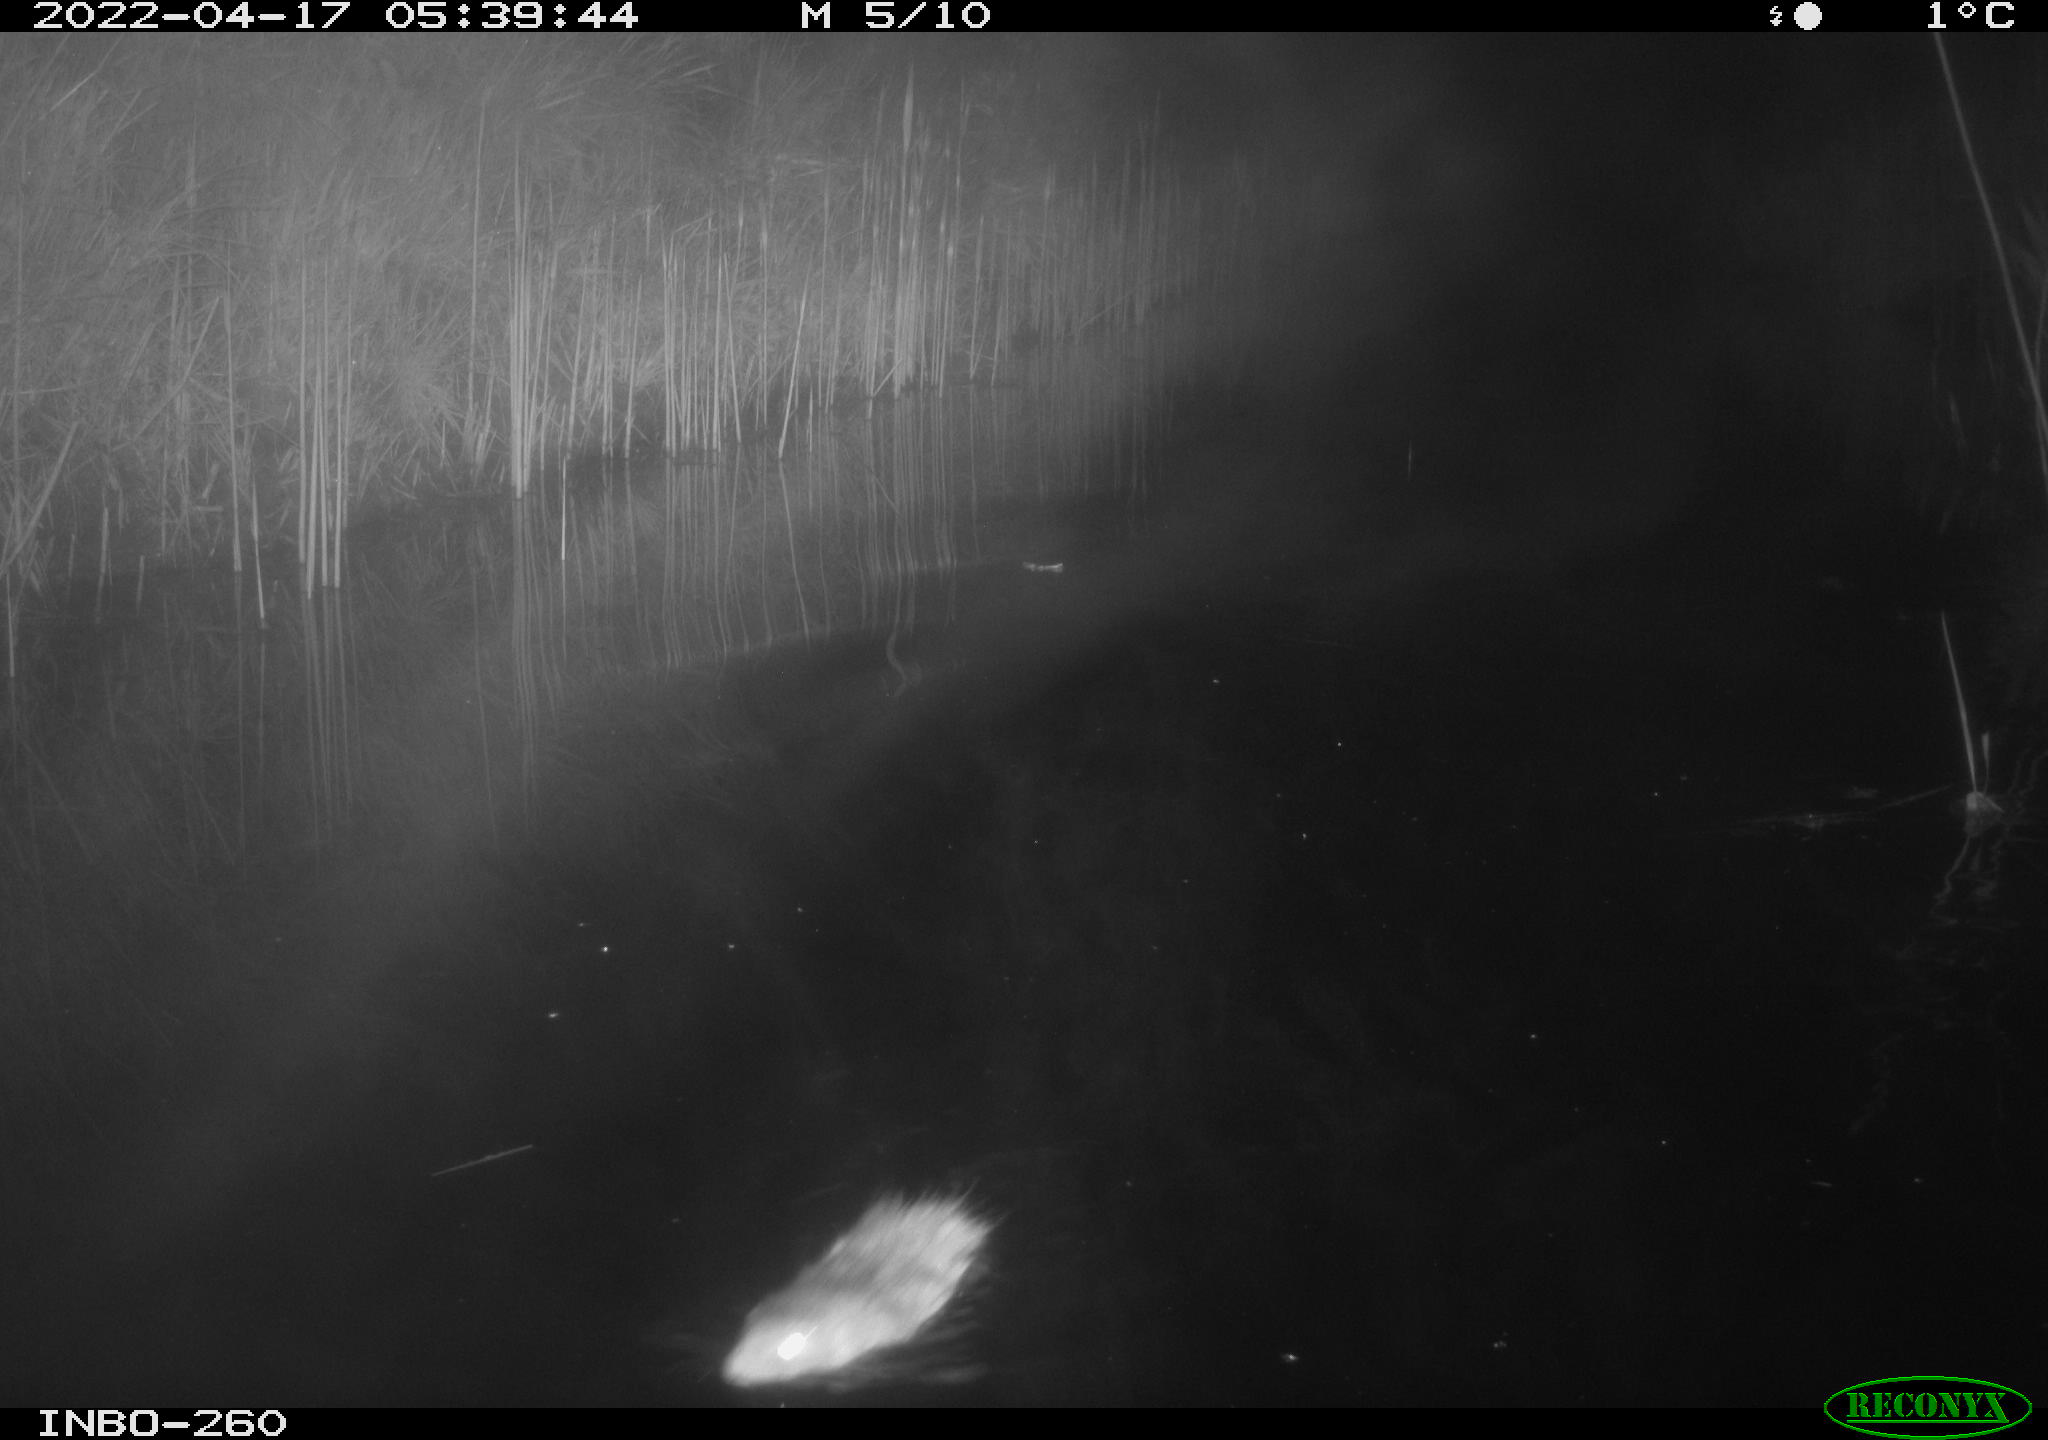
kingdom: Animalia
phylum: Chordata
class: Mammalia
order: Rodentia
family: Muridae
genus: Rattus
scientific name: Rattus norvegicus
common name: Brown rat
